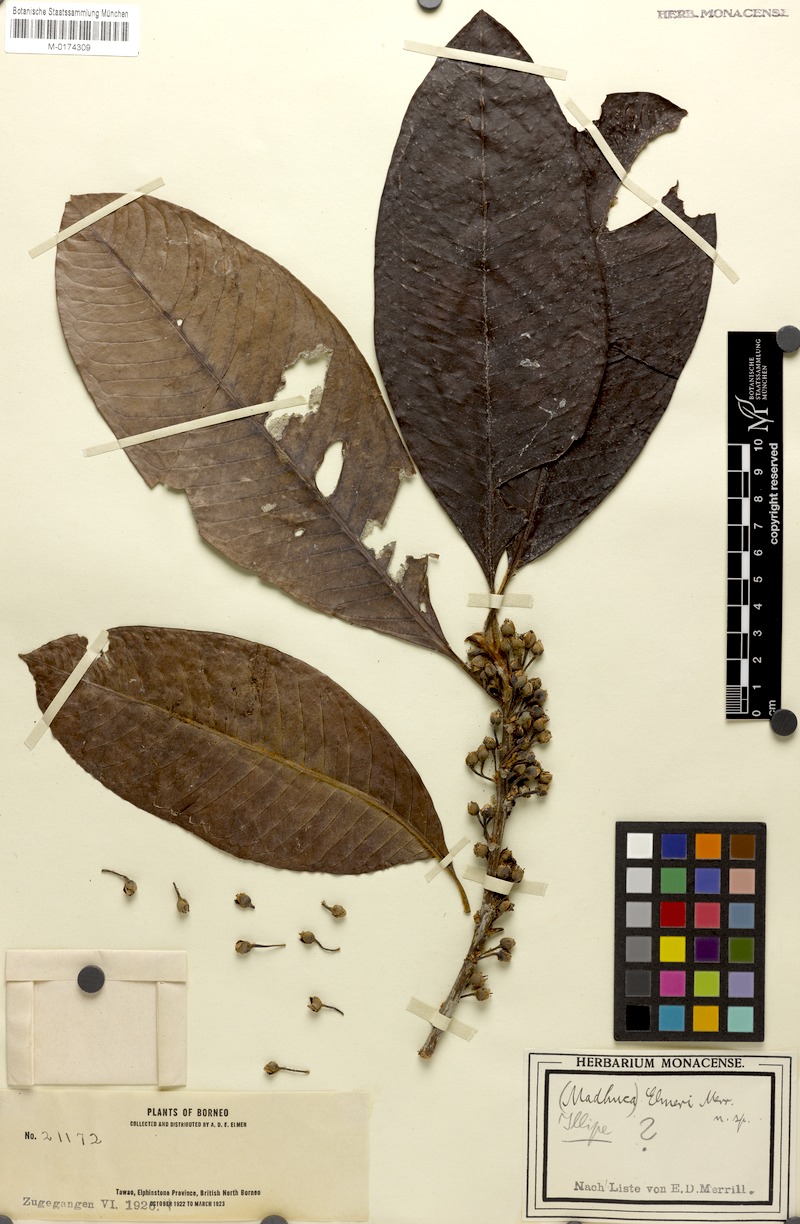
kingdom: Plantae
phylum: Tracheophyta
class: Magnoliopsida
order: Ericales
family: Sapotaceae
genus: Madhuca
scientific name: Madhuca elmeri
